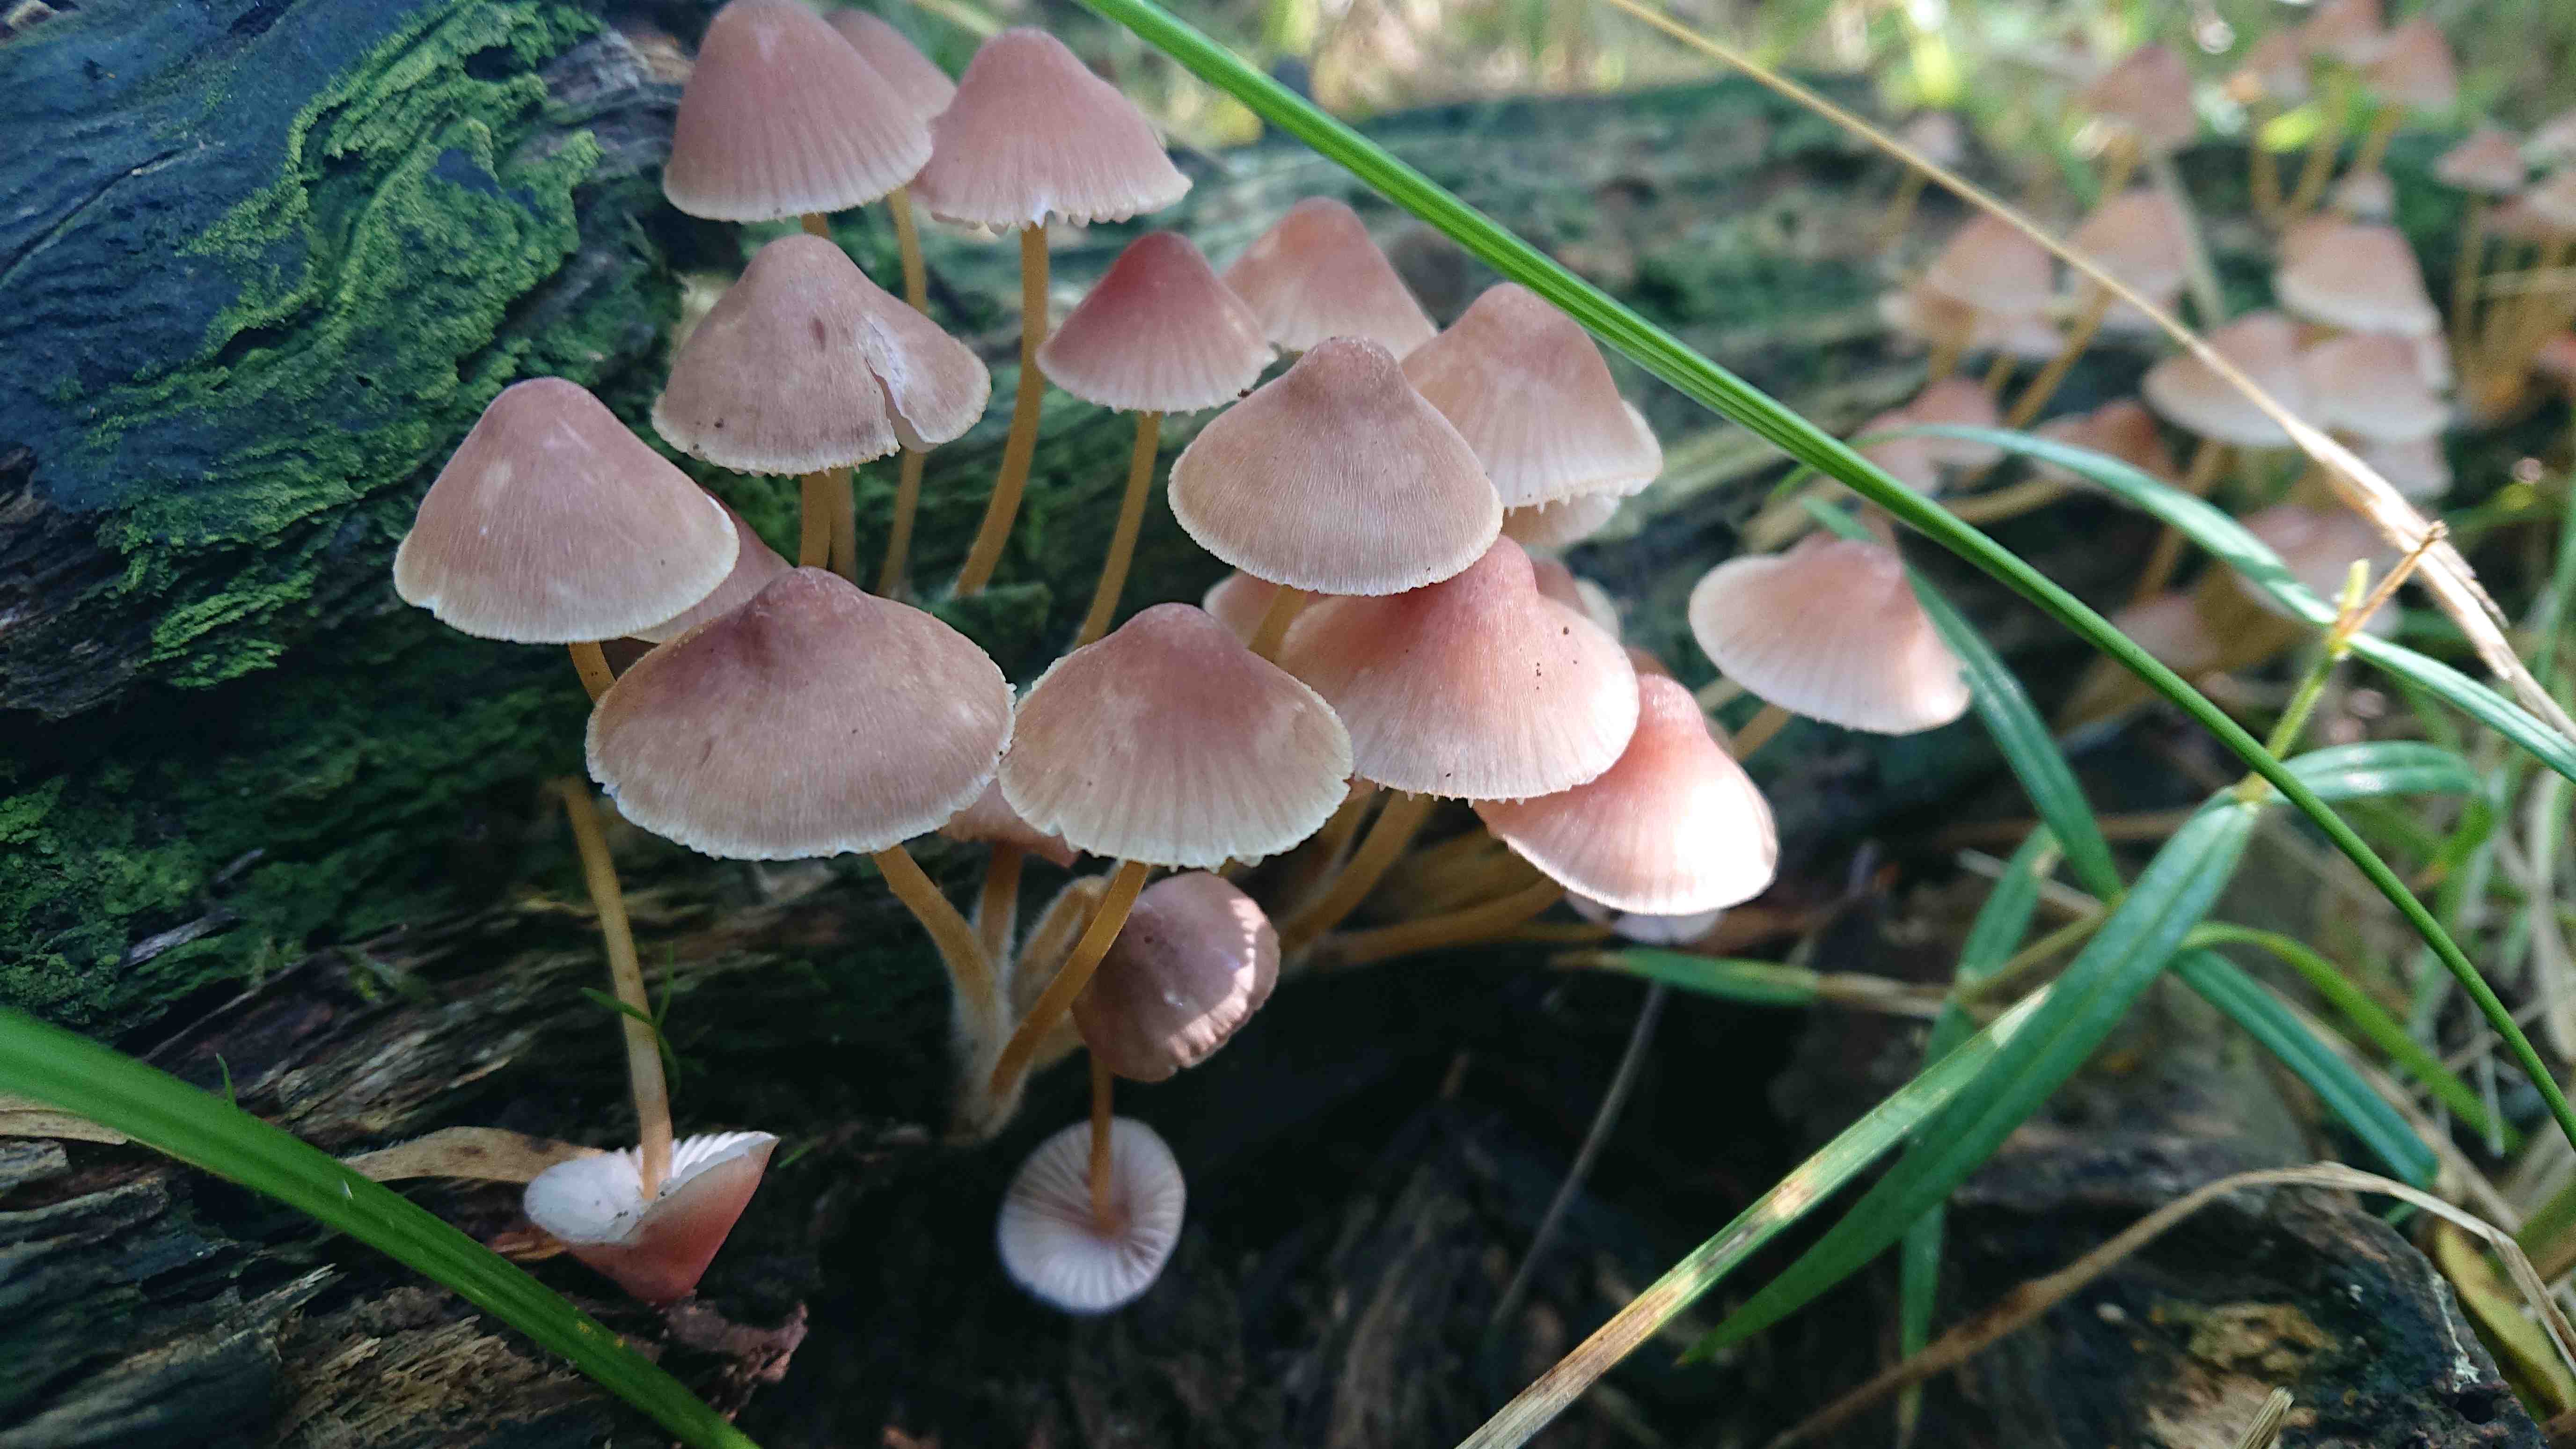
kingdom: Fungi
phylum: Basidiomycota
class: Agaricomycetes
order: Agaricales
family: Mycenaceae
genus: Mycena
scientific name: Mycena renati
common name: smuk huesvamp
